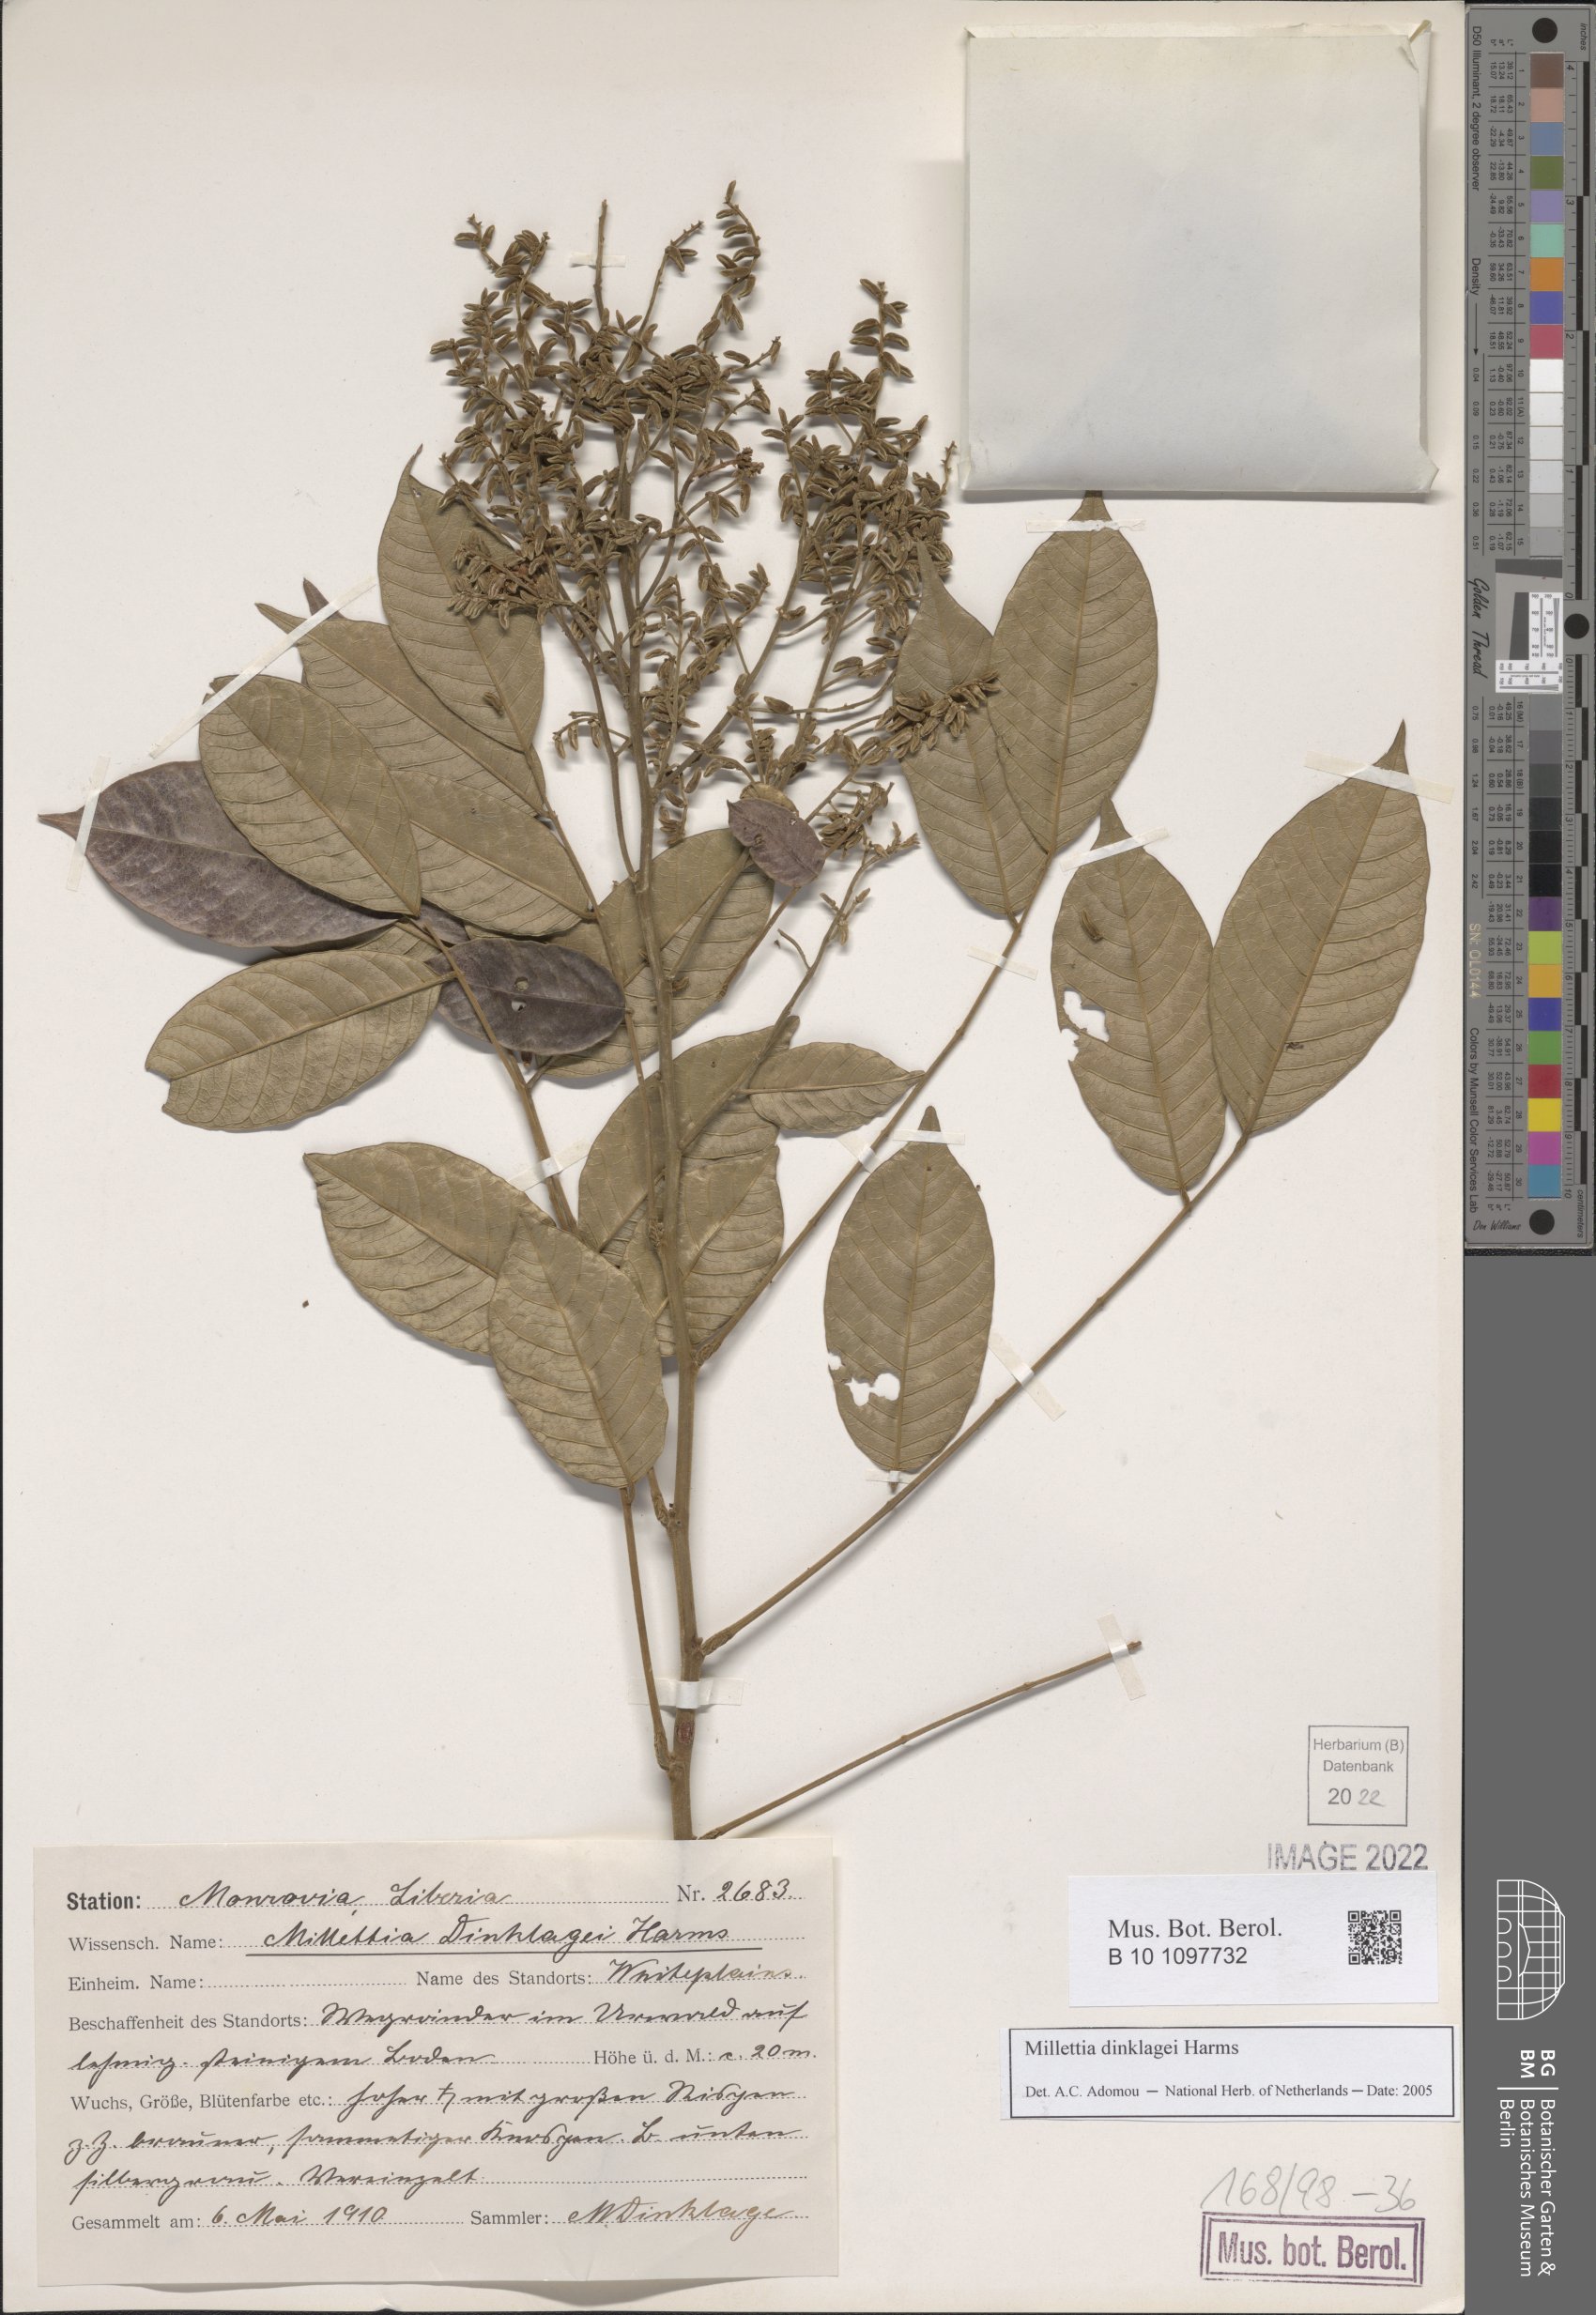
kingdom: Plantae
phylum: Tracheophyta
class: Magnoliopsida
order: Fabales
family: Fabaceae
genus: Millettia
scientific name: Millettia dinklagei
